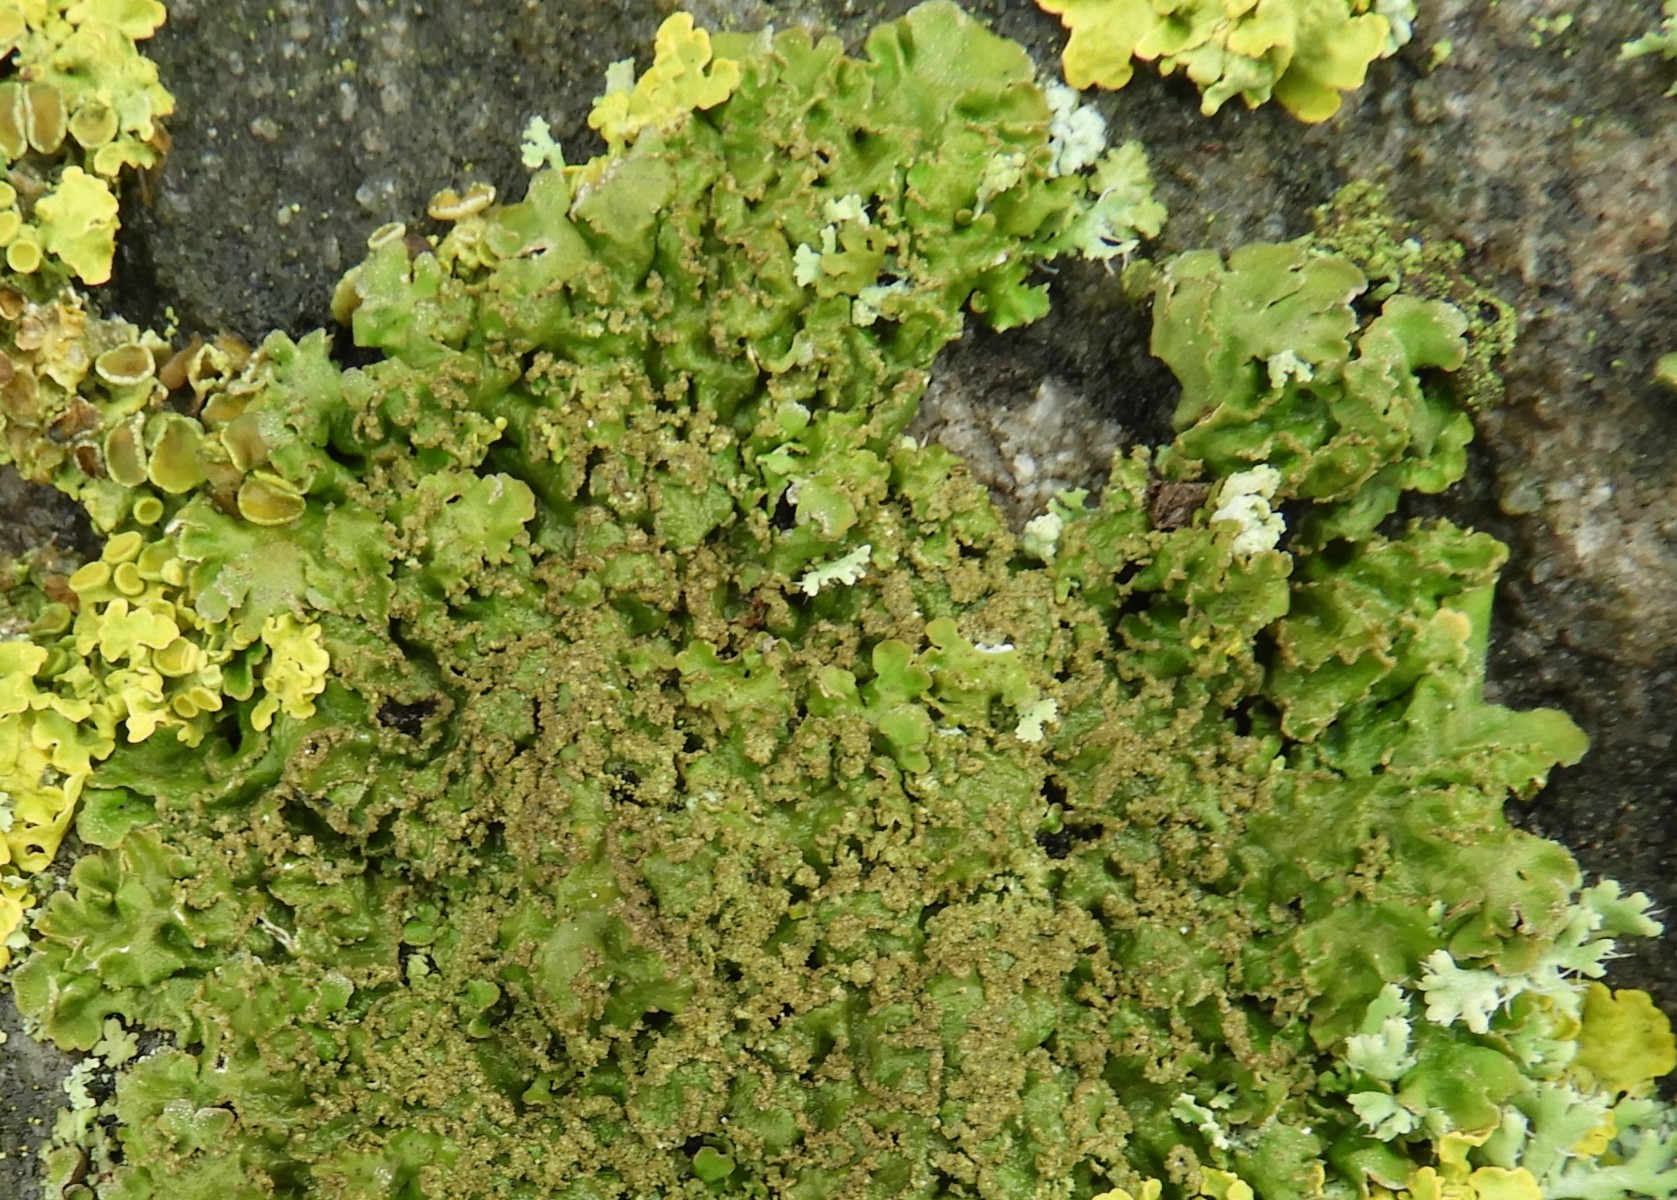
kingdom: Fungi
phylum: Ascomycota
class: Lecanoromycetes
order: Caliciales
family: Physciaceae
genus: Physconia
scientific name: Physconia
